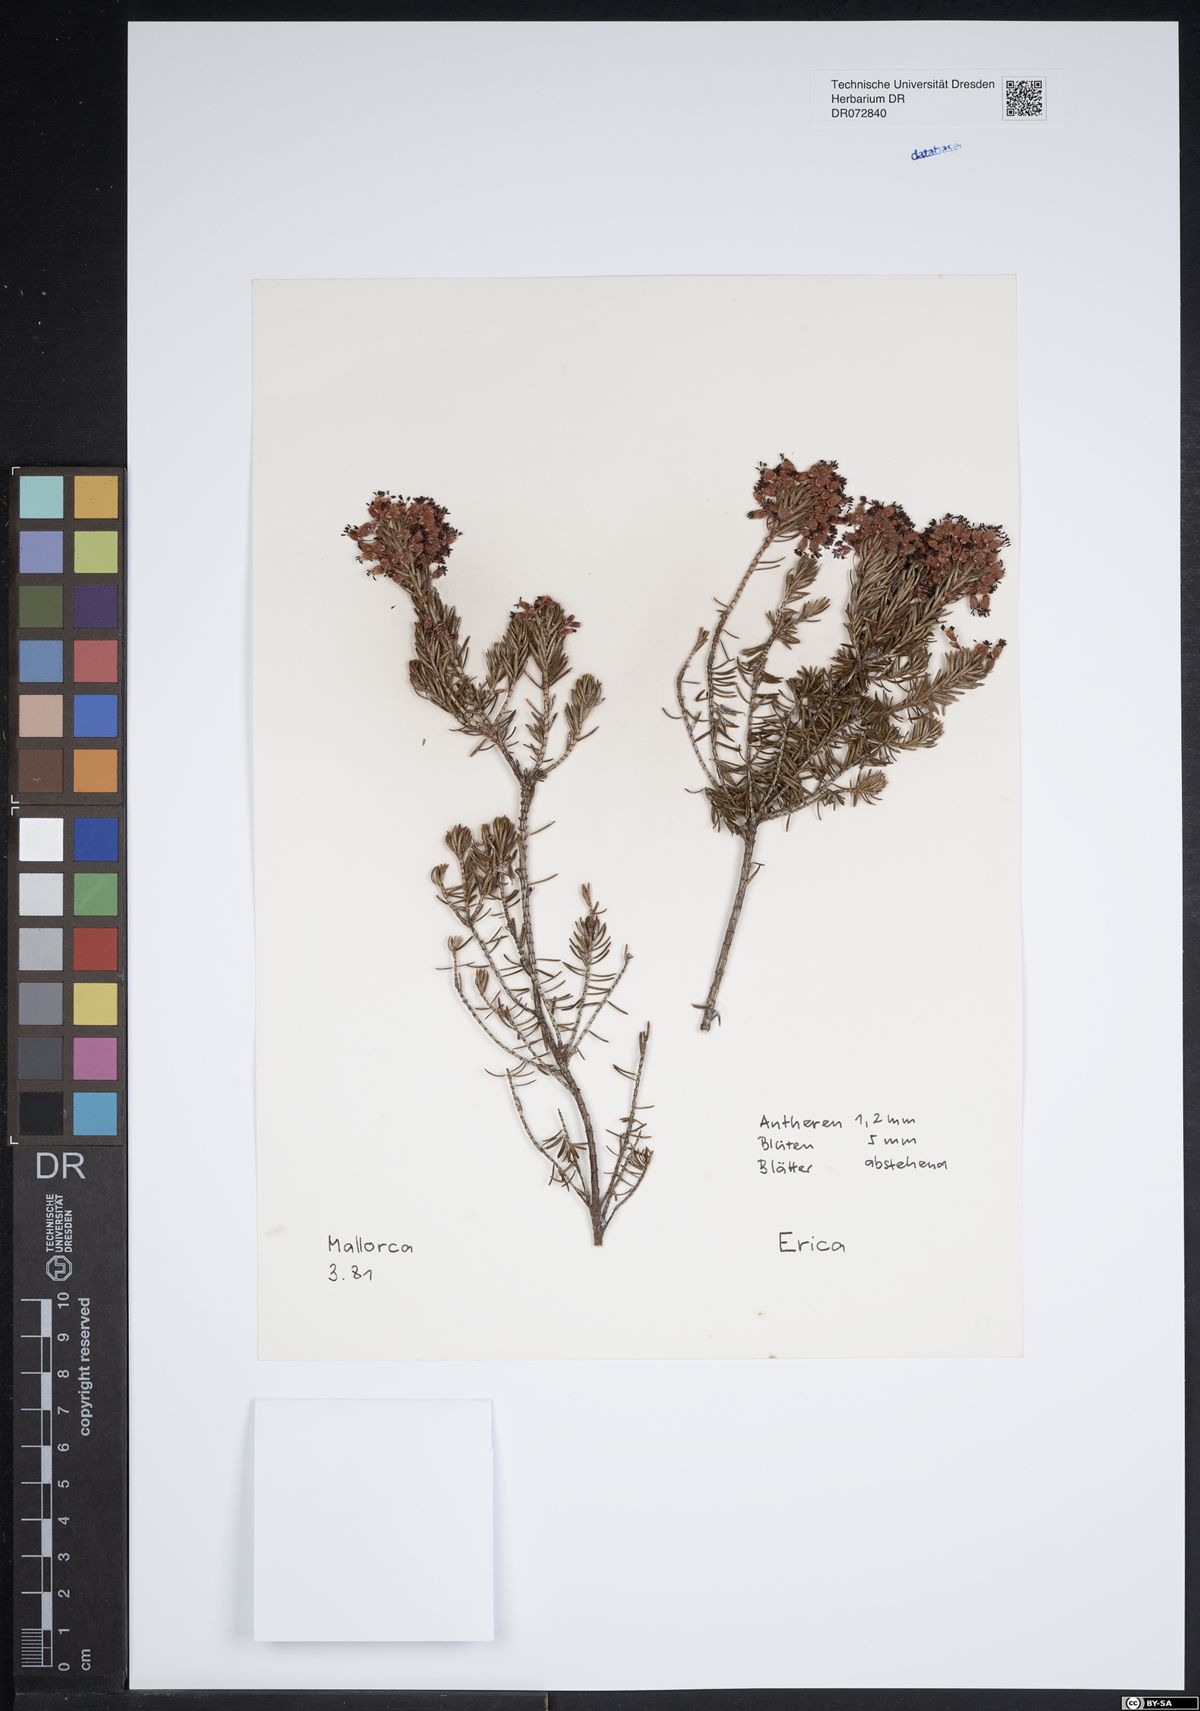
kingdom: Plantae
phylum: Tracheophyta
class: Magnoliopsida
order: Ericales
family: Ericaceae
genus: Erica
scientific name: Erica
